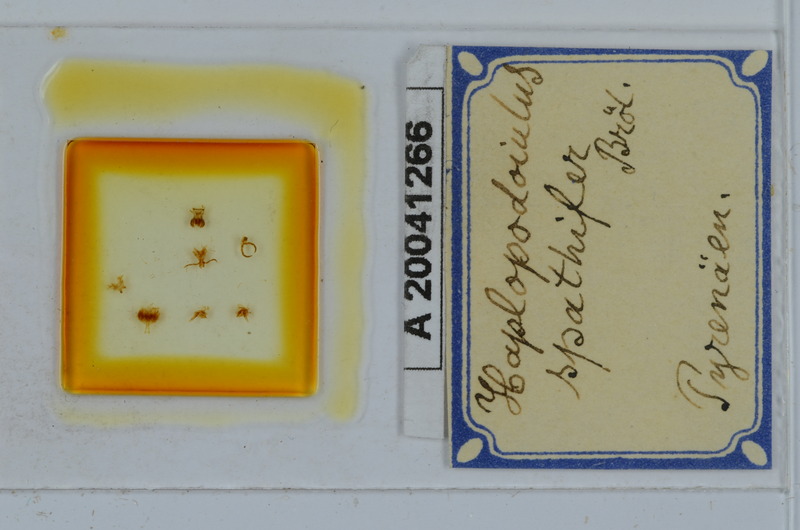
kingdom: Animalia
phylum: Arthropoda
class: Diplopoda
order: Julida
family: Julidae
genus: Haplopodoiulus
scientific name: Haplopodoiulus spathifer
